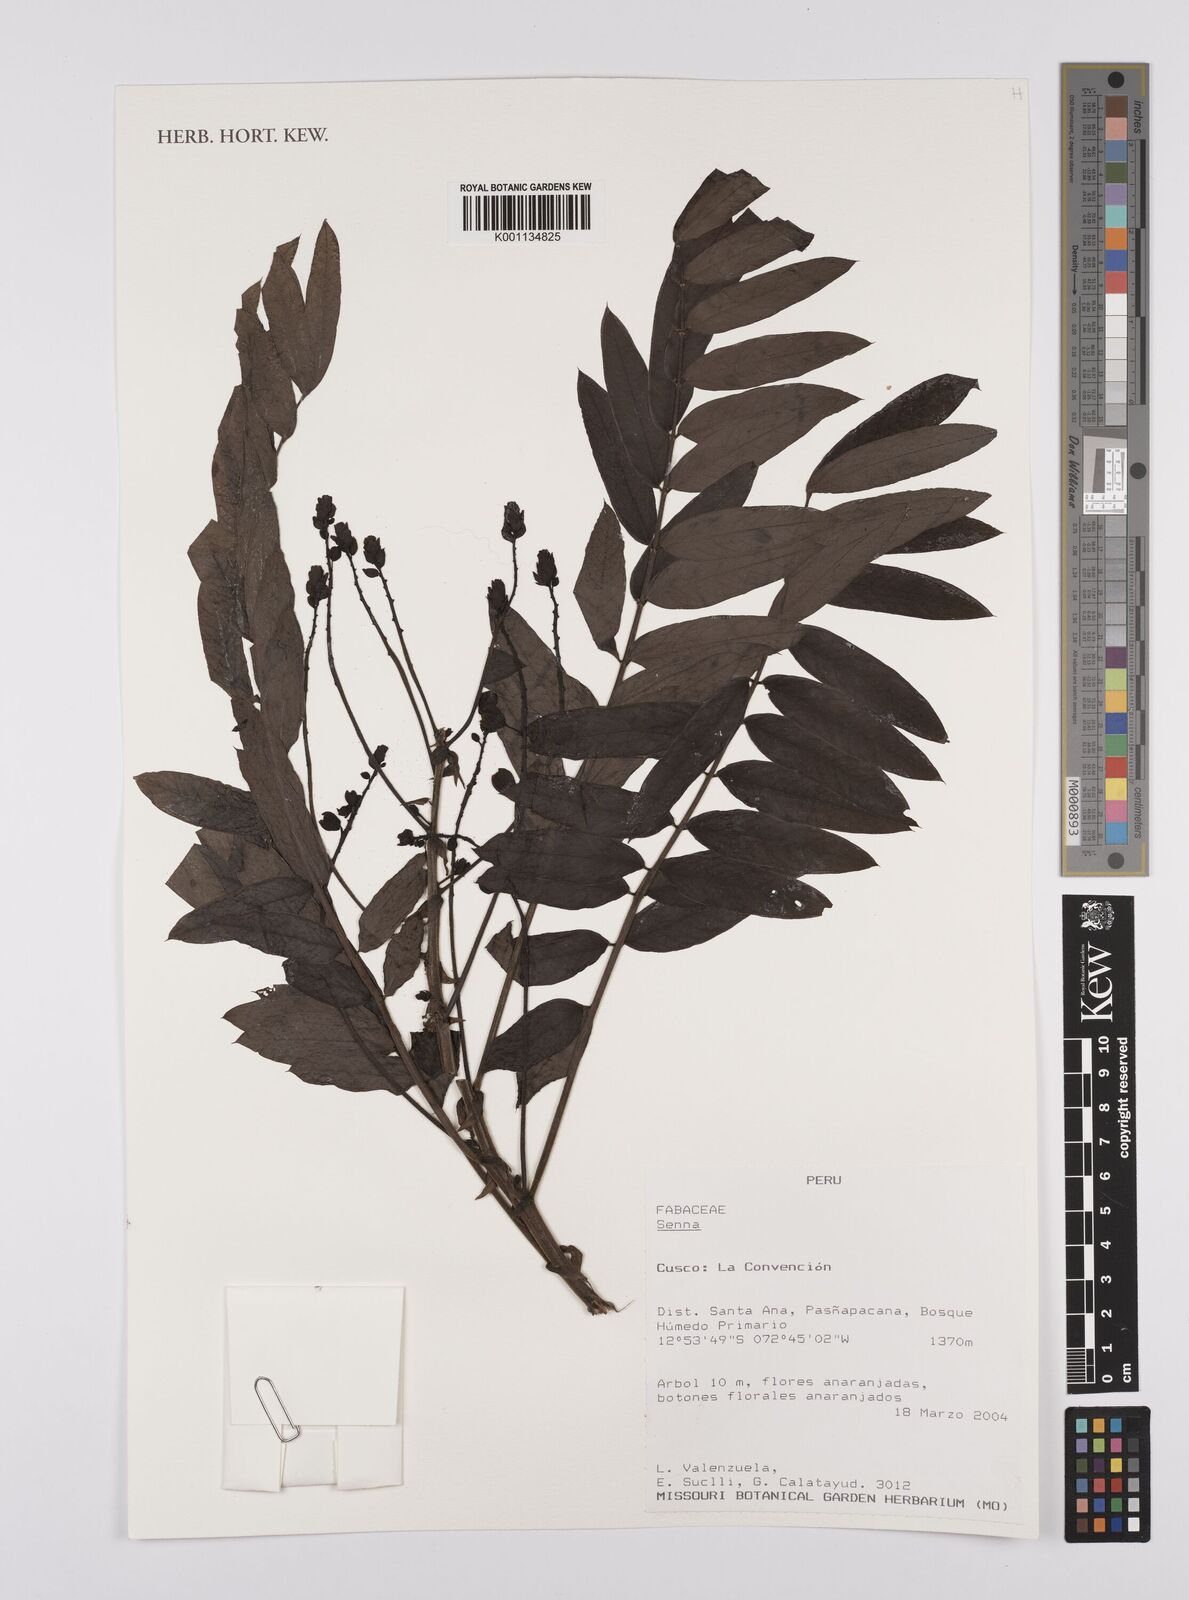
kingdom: Plantae
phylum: Tracheophyta
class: Magnoliopsida
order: Fabales
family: Fabaceae
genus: Senna
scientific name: Senna
